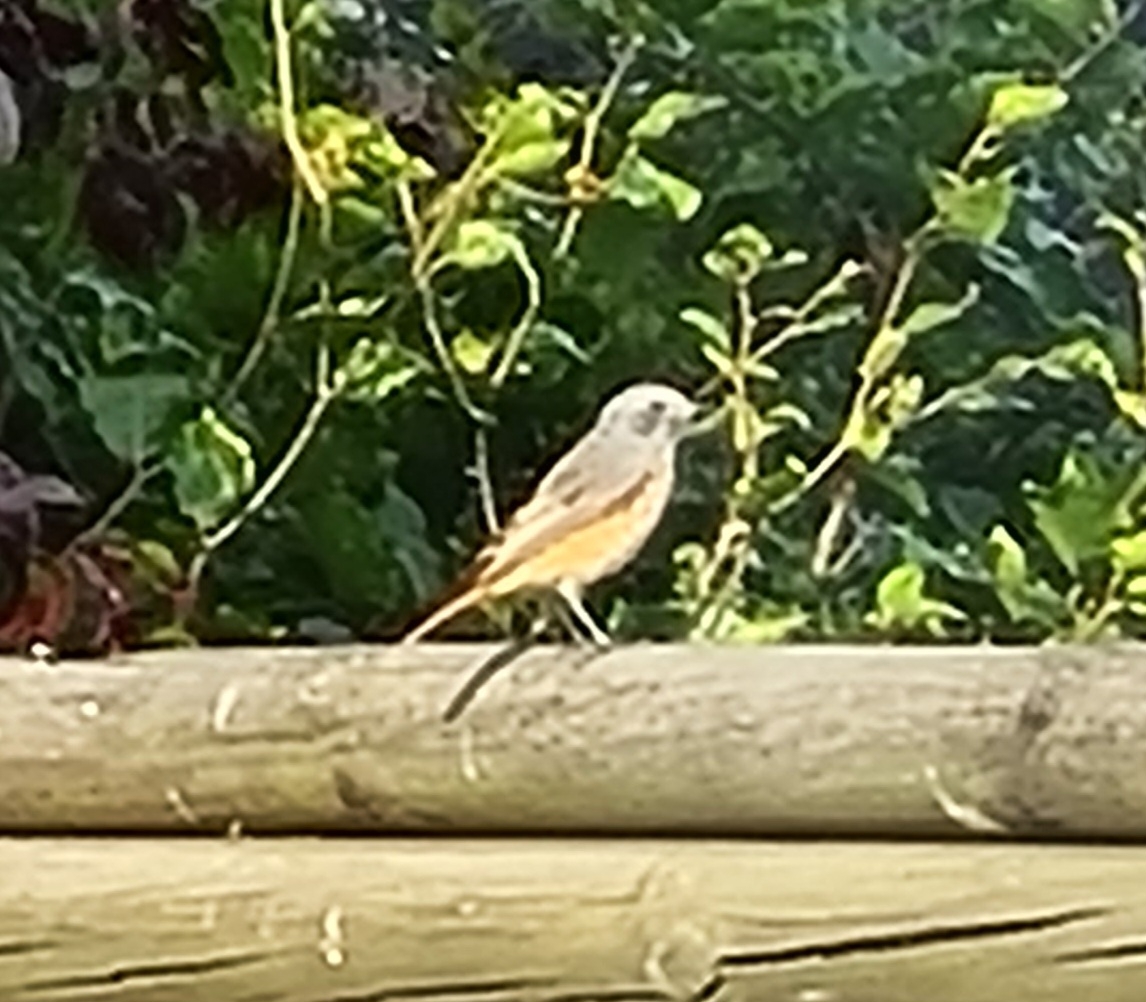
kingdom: Animalia
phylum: Chordata
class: Aves
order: Passeriformes
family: Muscicapidae
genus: Phoenicurus
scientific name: Phoenicurus phoenicurus
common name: Rødstjert
